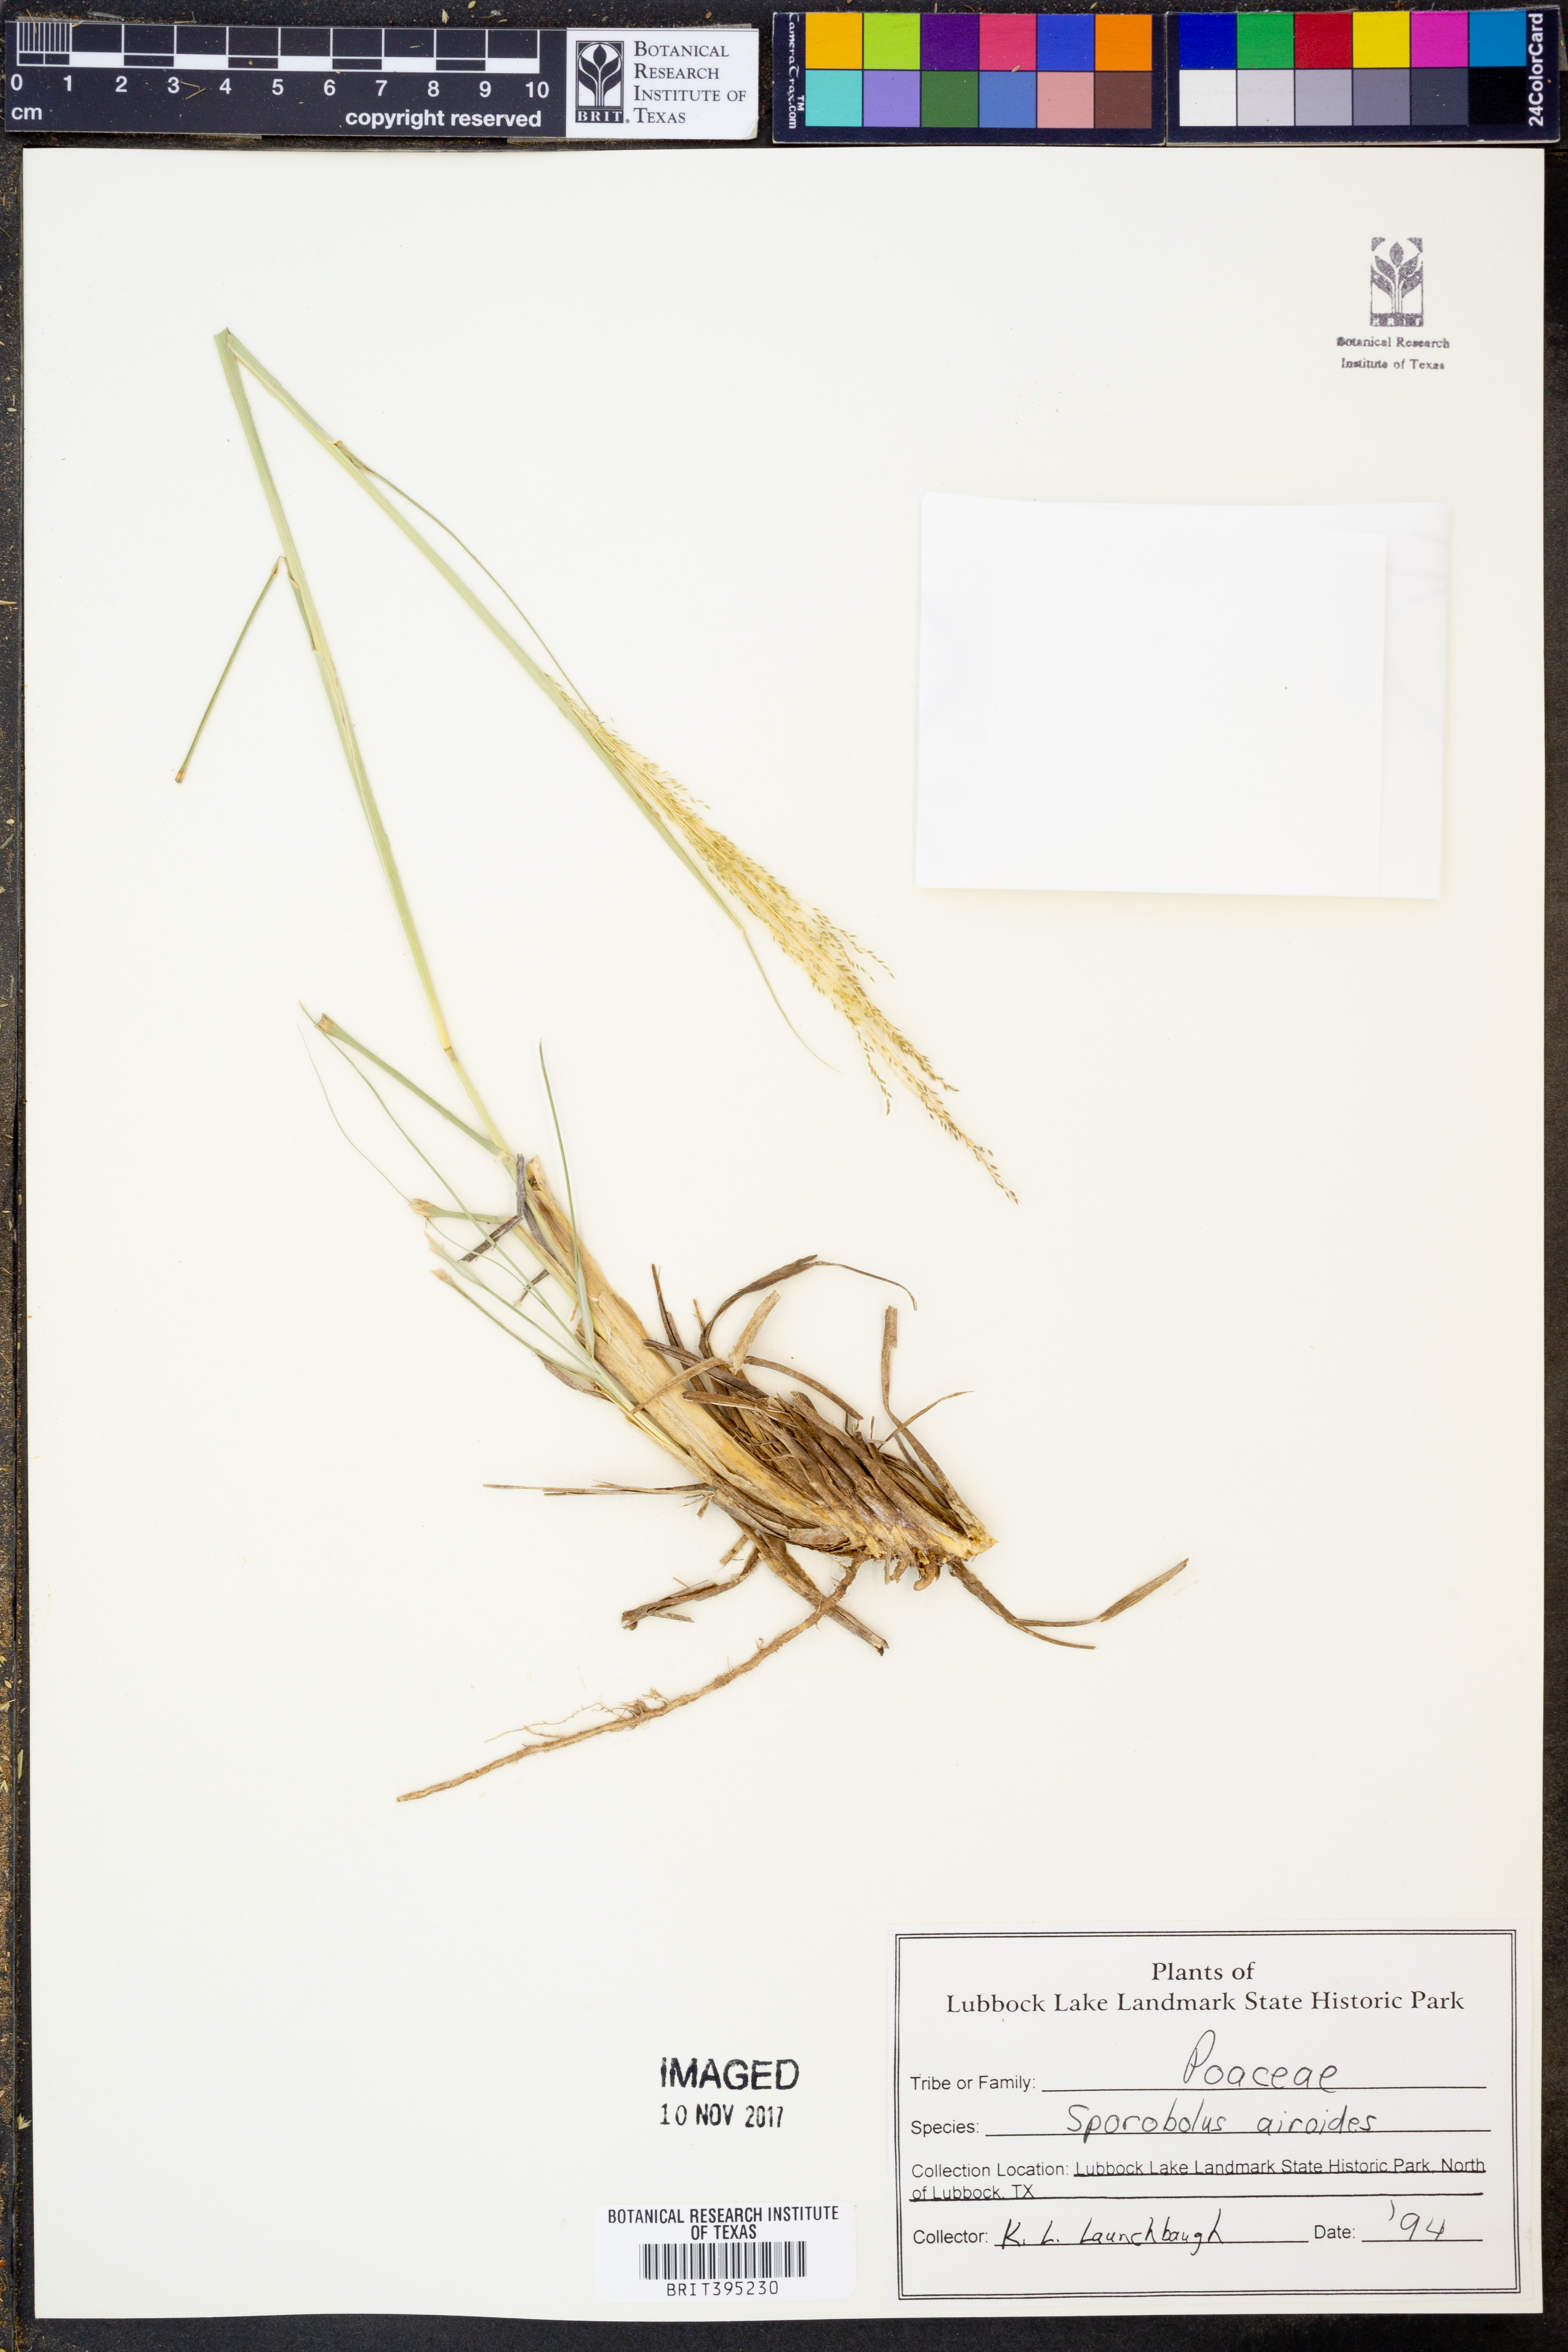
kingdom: Plantae
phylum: Tracheophyta
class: Liliopsida
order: Poales
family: Poaceae
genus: Sporobolus
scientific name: Sporobolus airoides
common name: Alkali sacaton
